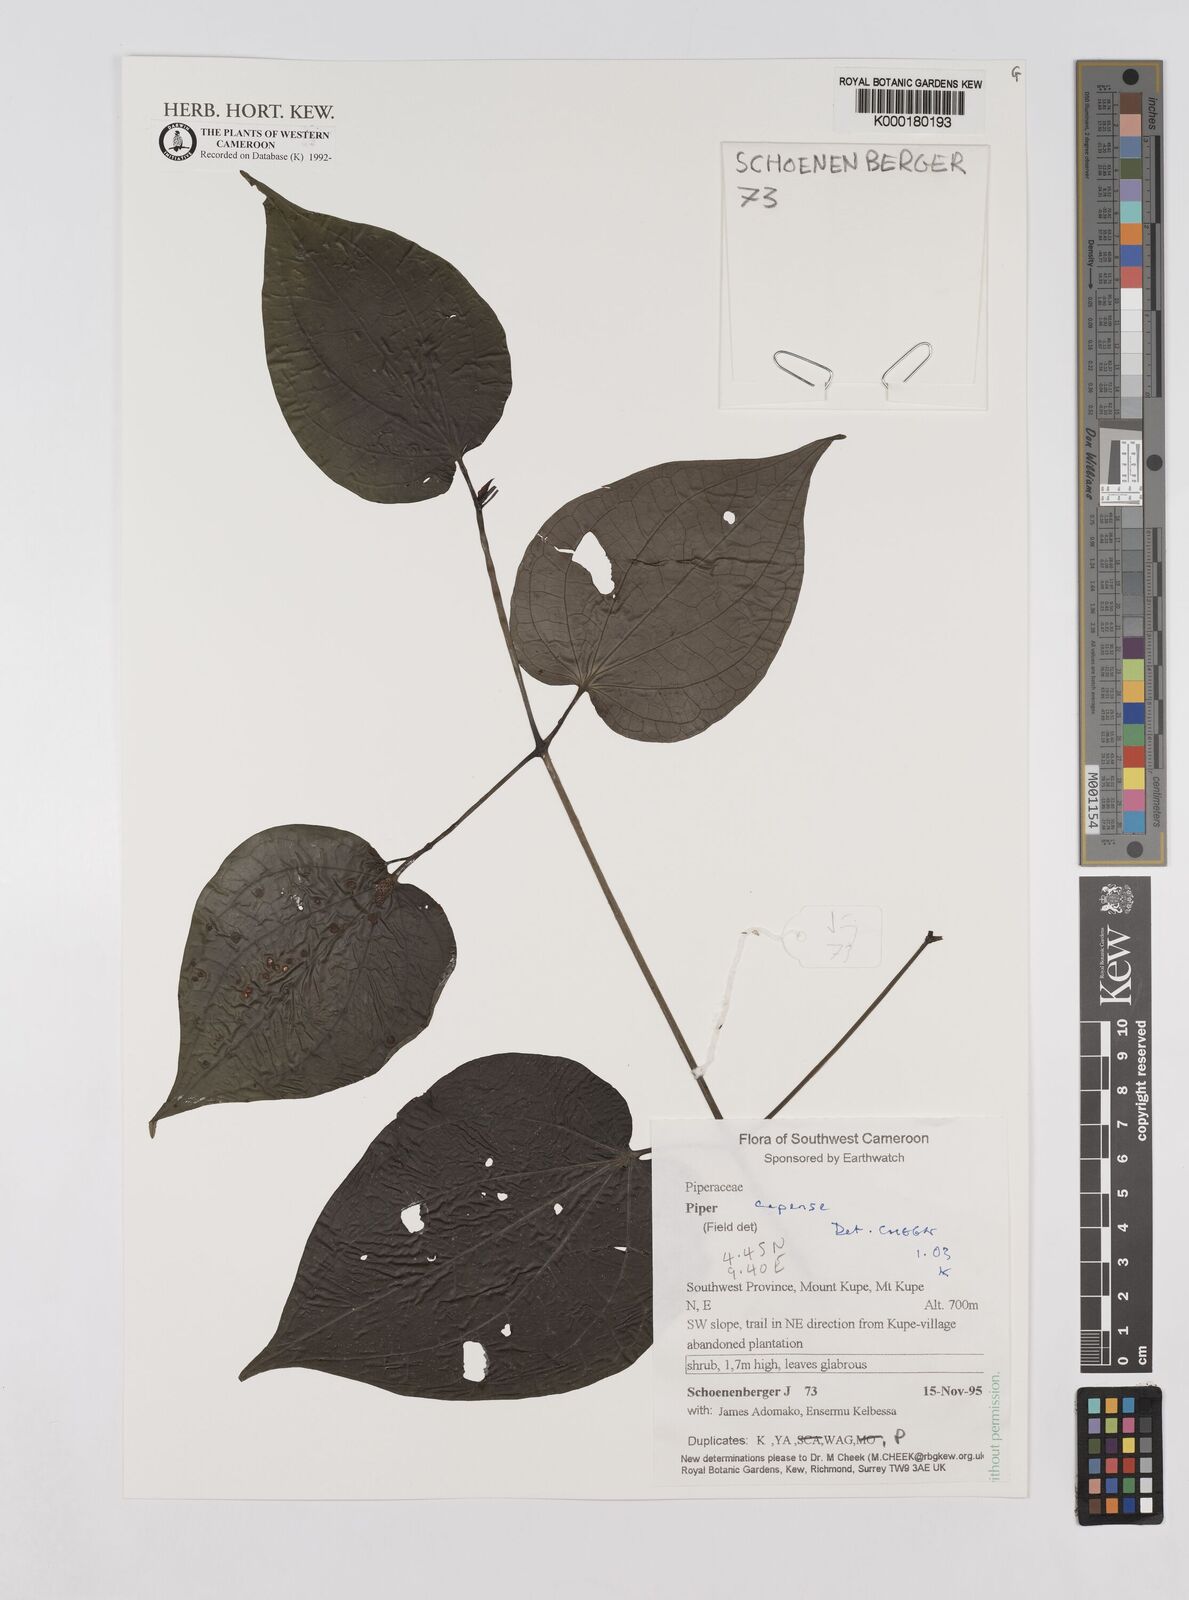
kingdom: Plantae
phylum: Tracheophyta
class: Magnoliopsida
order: Piperales
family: Piperaceae
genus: Piper
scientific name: Piper capense
